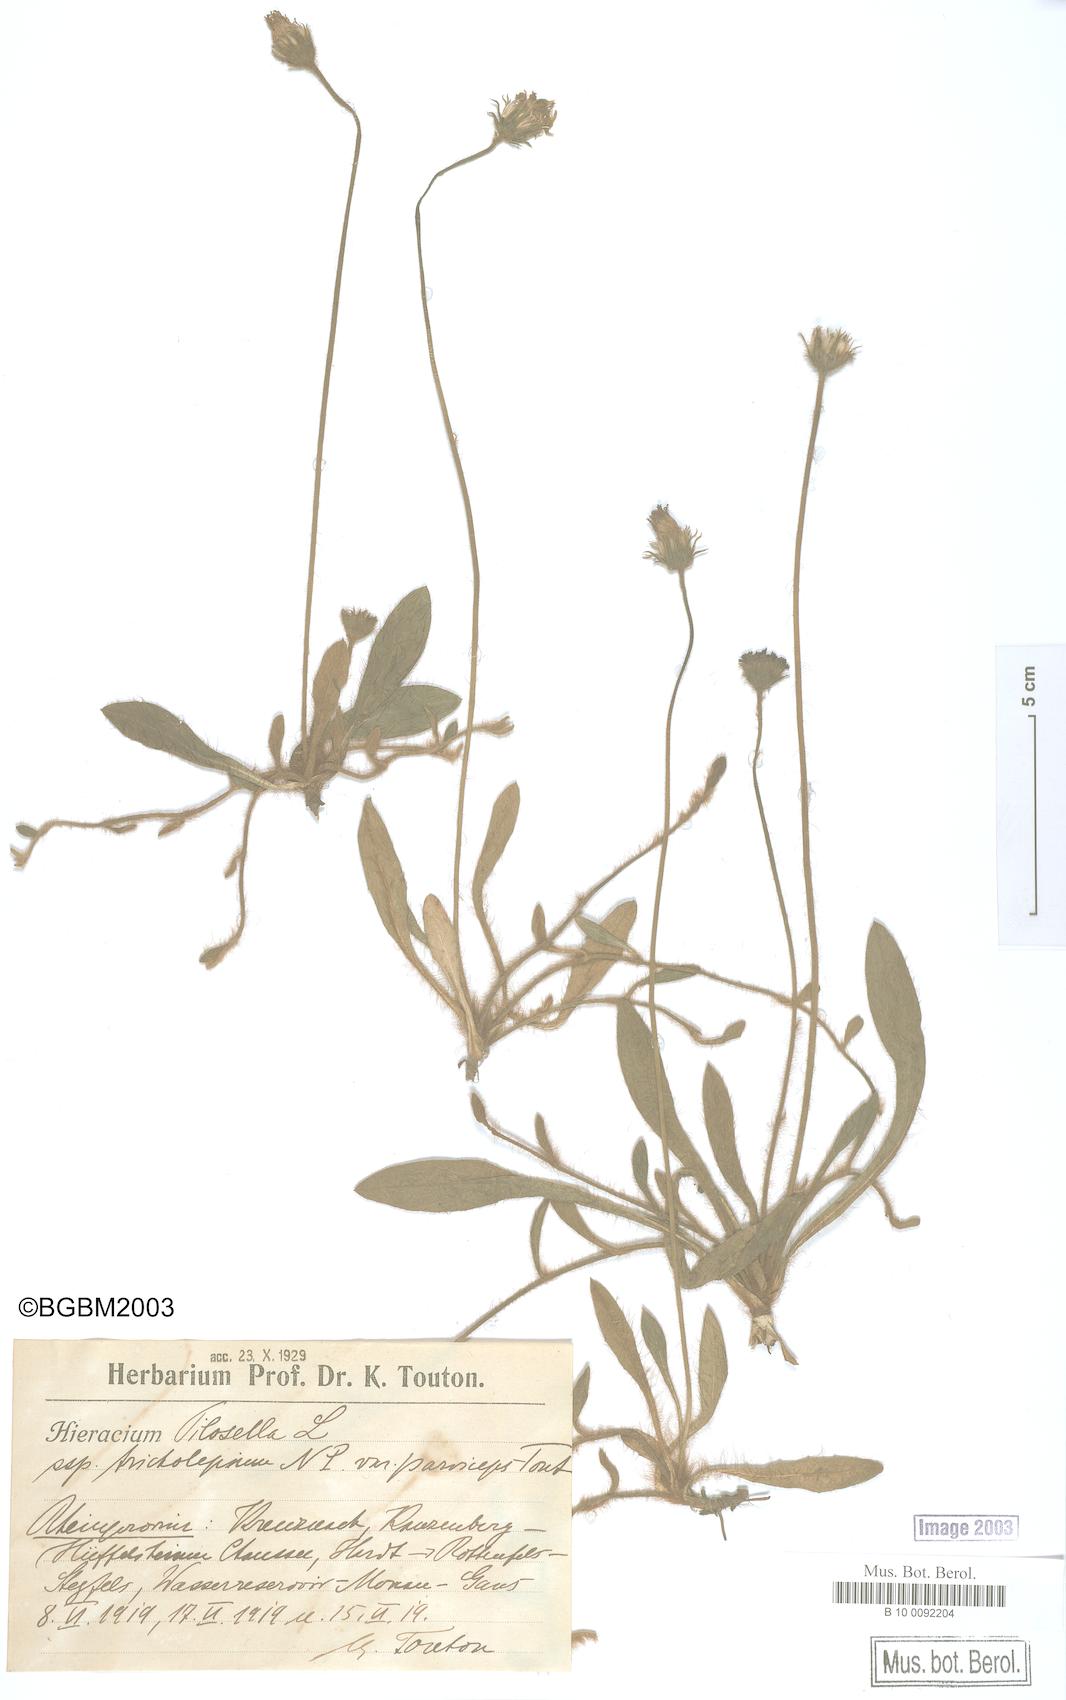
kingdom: Plantae
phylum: Tracheophyta
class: Magnoliopsida
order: Asterales
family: Asteraceae
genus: Pilosella
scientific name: Pilosella officinarum
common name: Mouse-ear hawkweed
